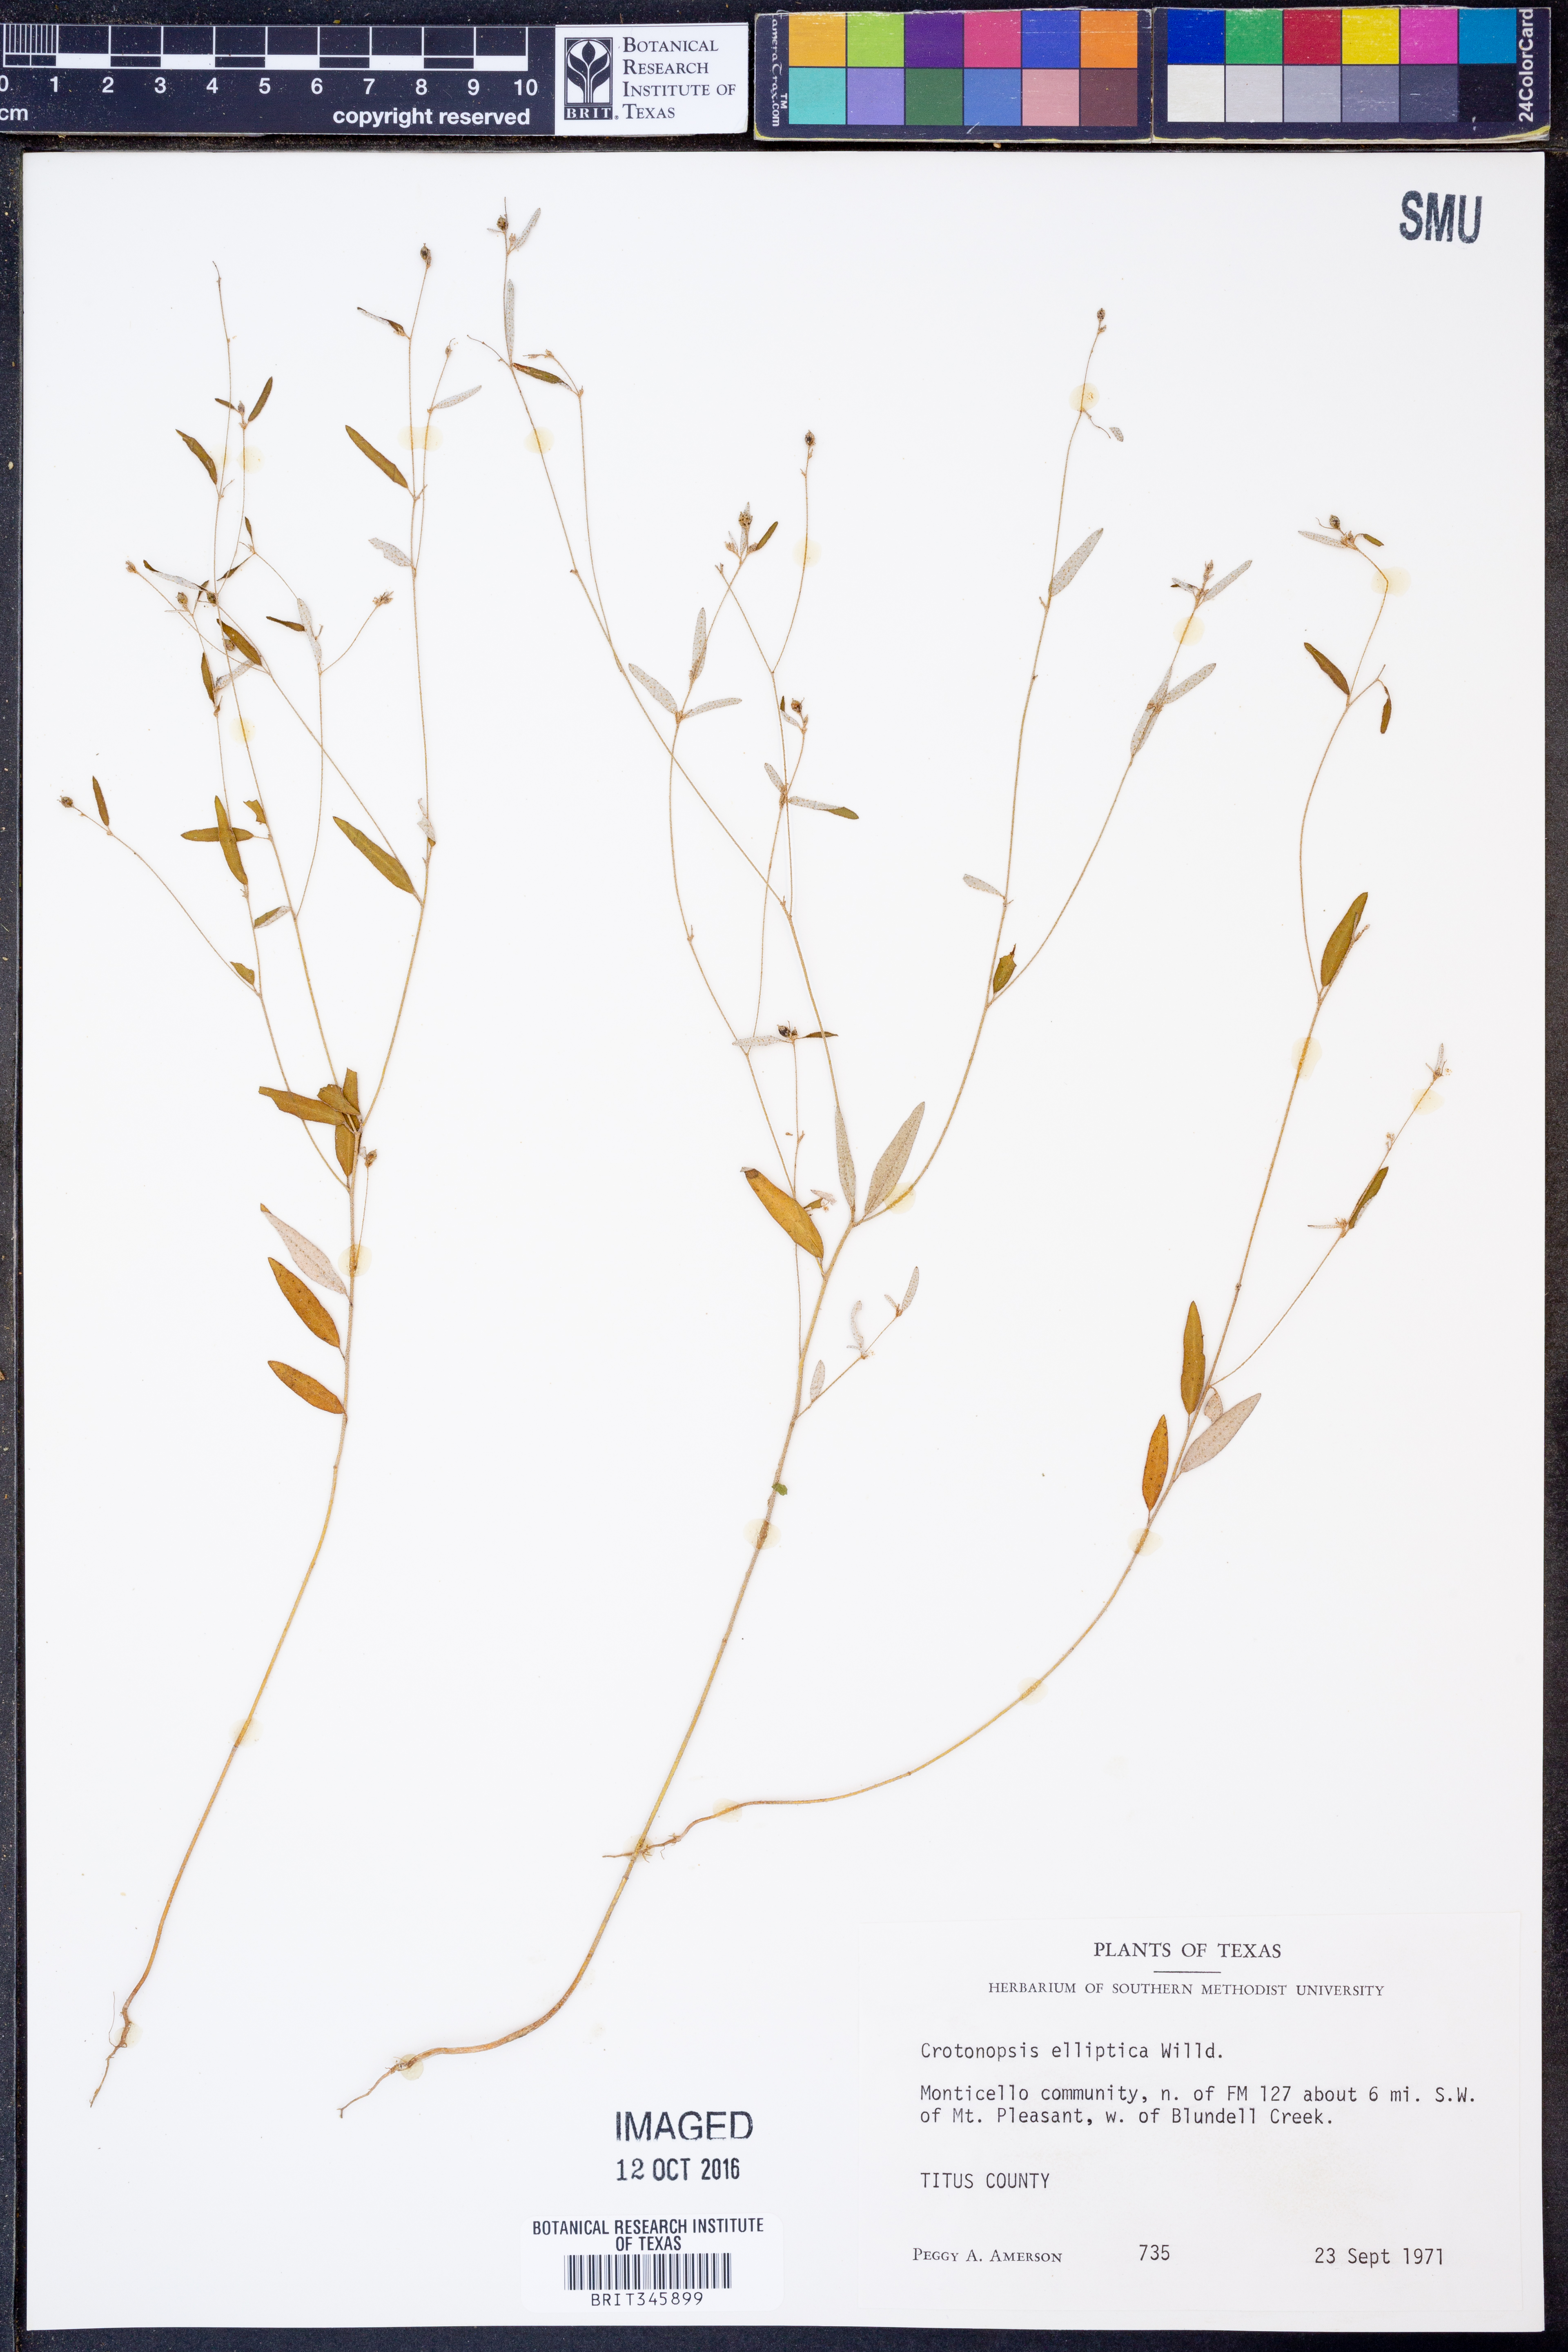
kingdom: Plantae
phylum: Tracheophyta
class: Magnoliopsida
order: Malpighiales
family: Euphorbiaceae
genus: Croton
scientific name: Croton michauxii
